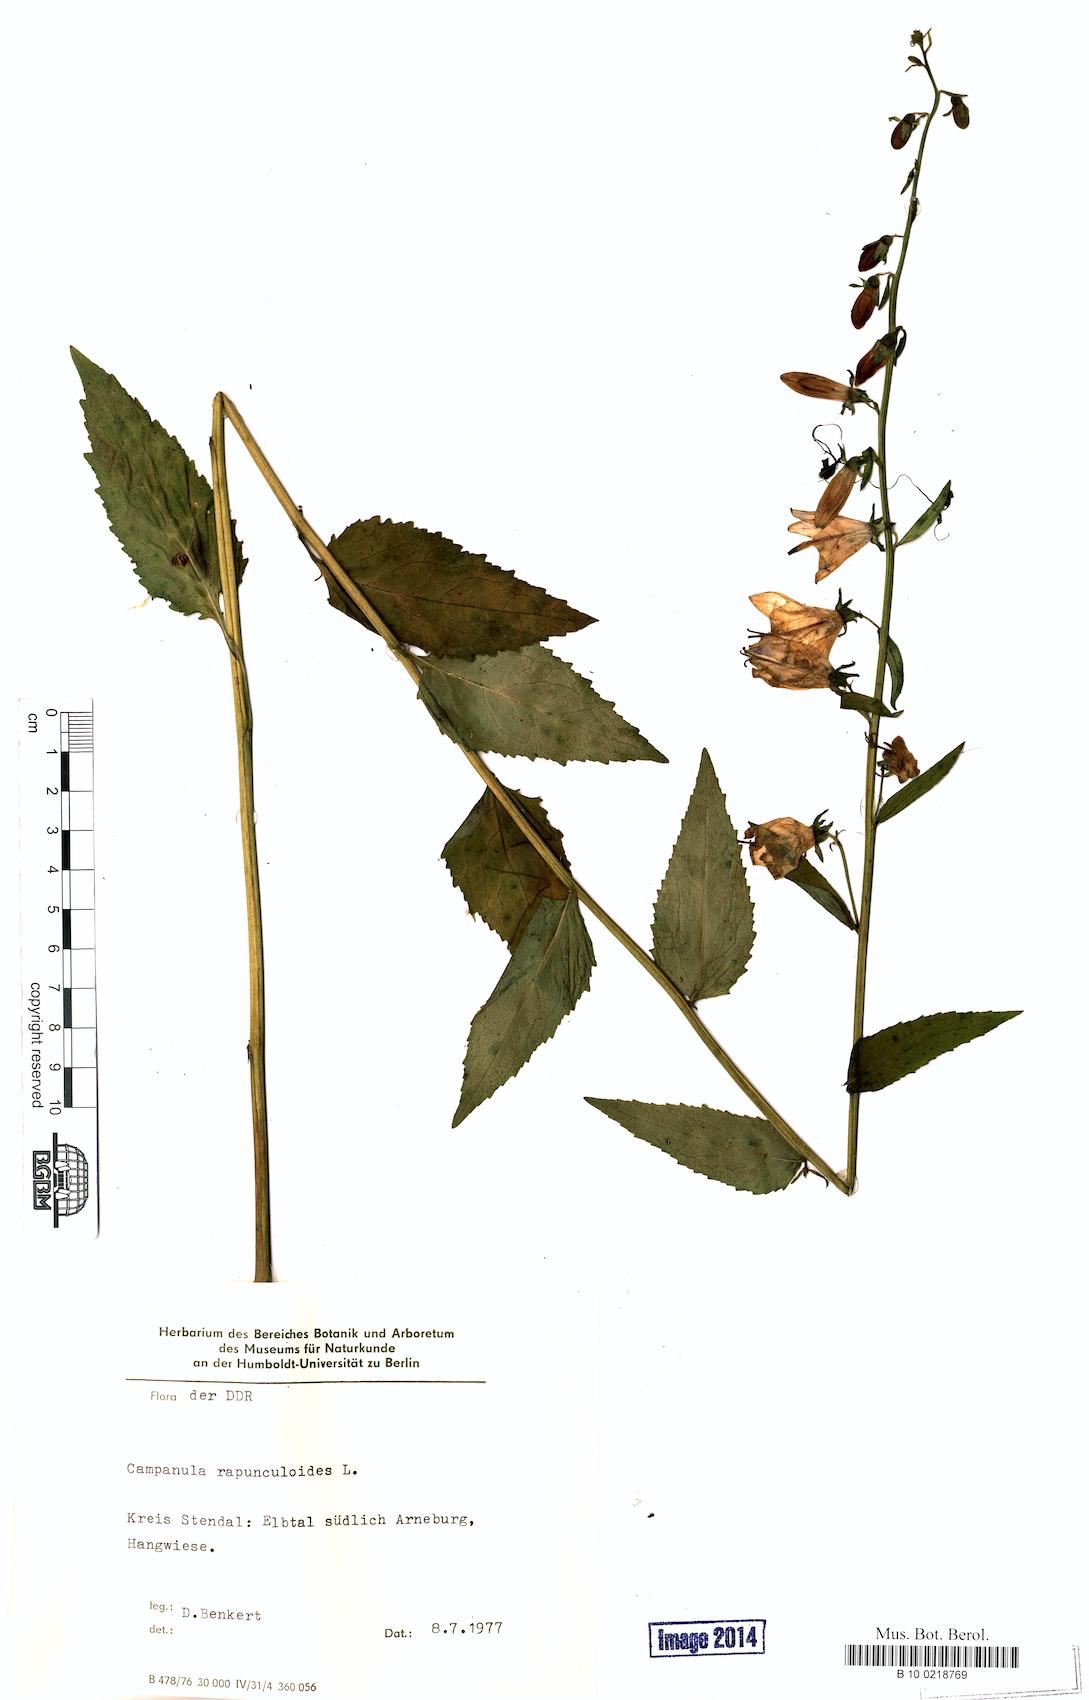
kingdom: Plantae
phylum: Tracheophyta
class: Magnoliopsida
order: Asterales
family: Campanulaceae
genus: Campanula
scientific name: Campanula rapunculoides
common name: Creeping bellflower
